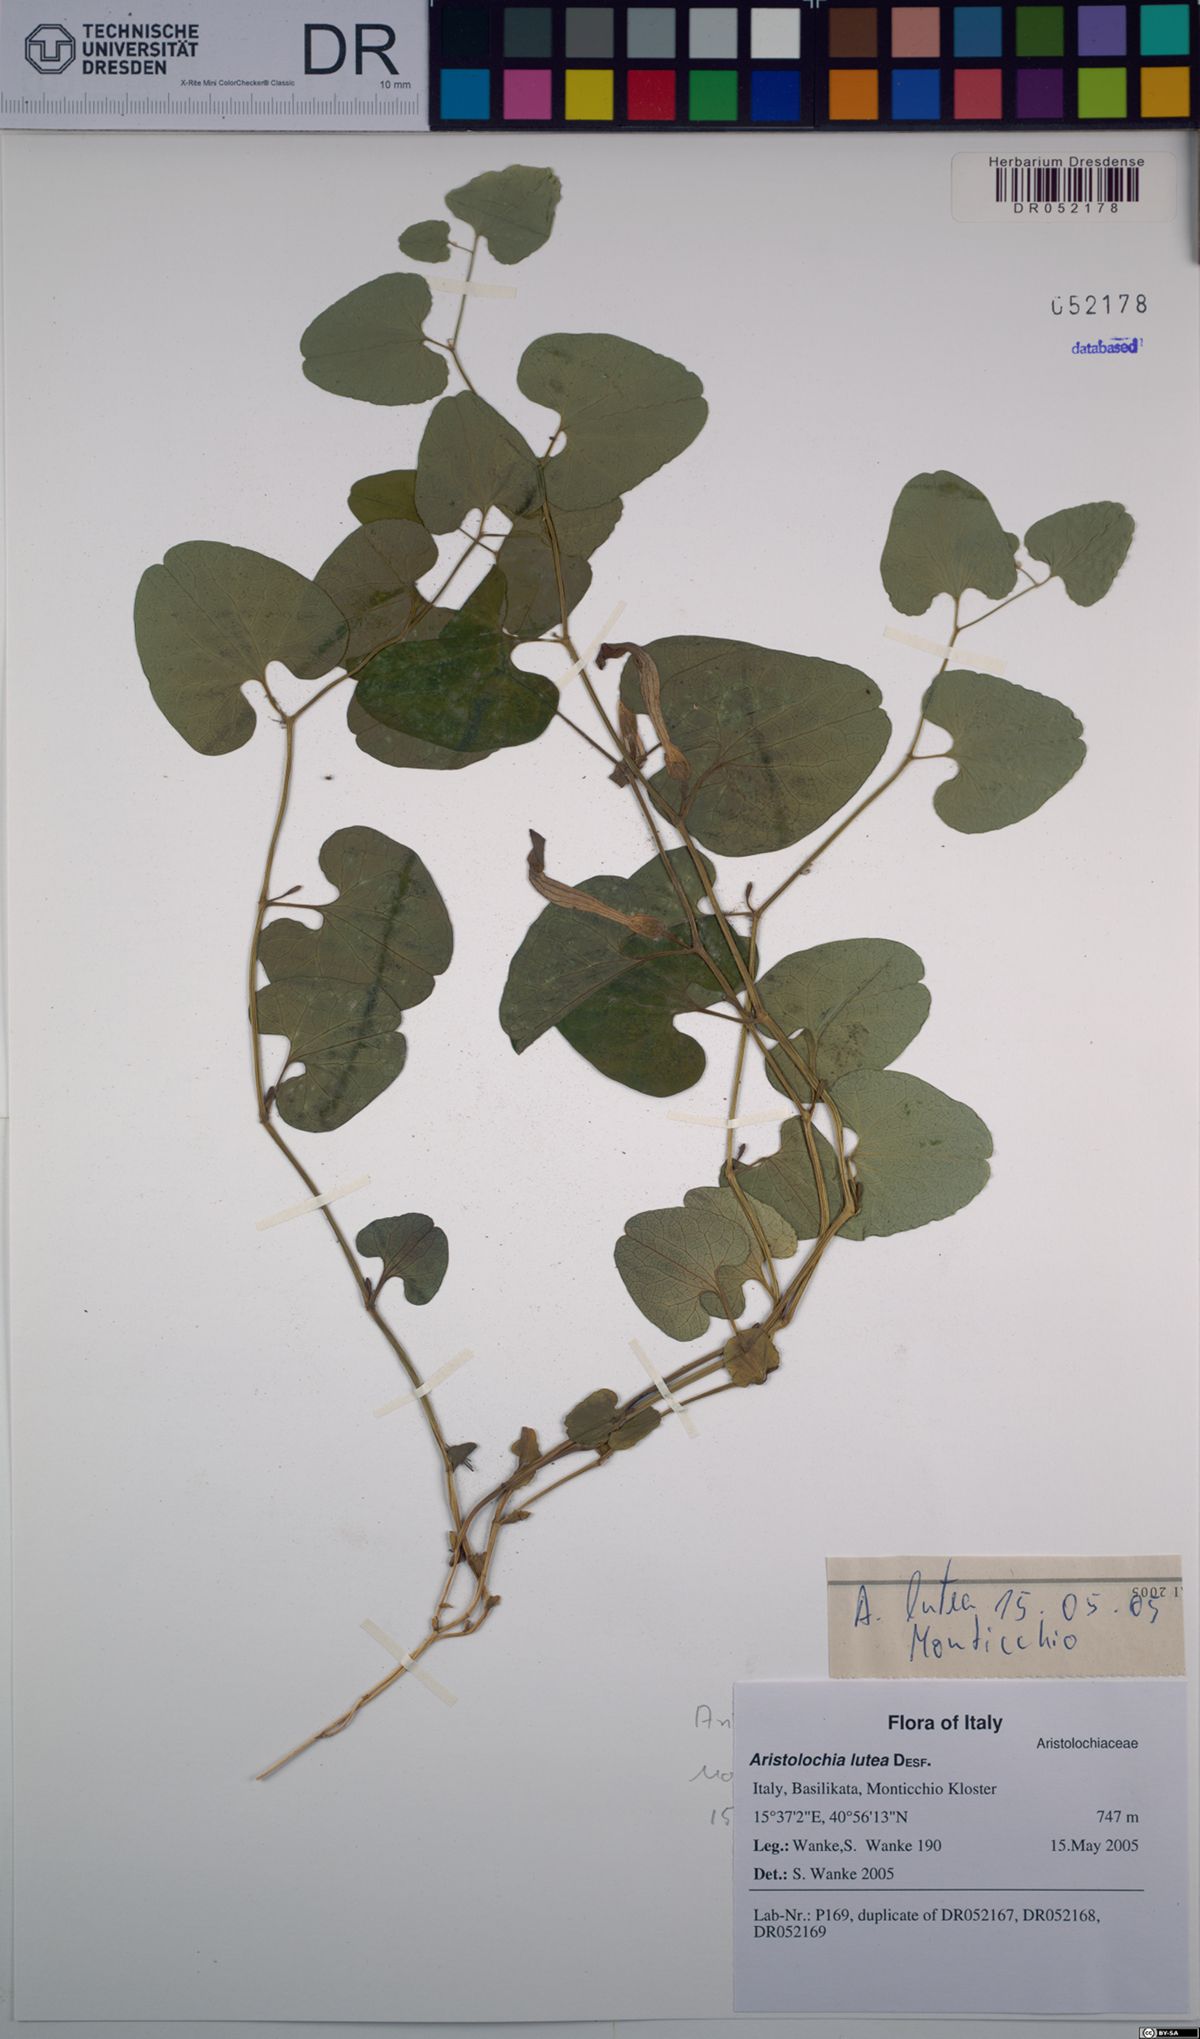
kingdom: Plantae
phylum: Tracheophyta
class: Magnoliopsida
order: Piperales
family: Aristolochiaceae
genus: Aristolochia
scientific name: Aristolochia lutea
